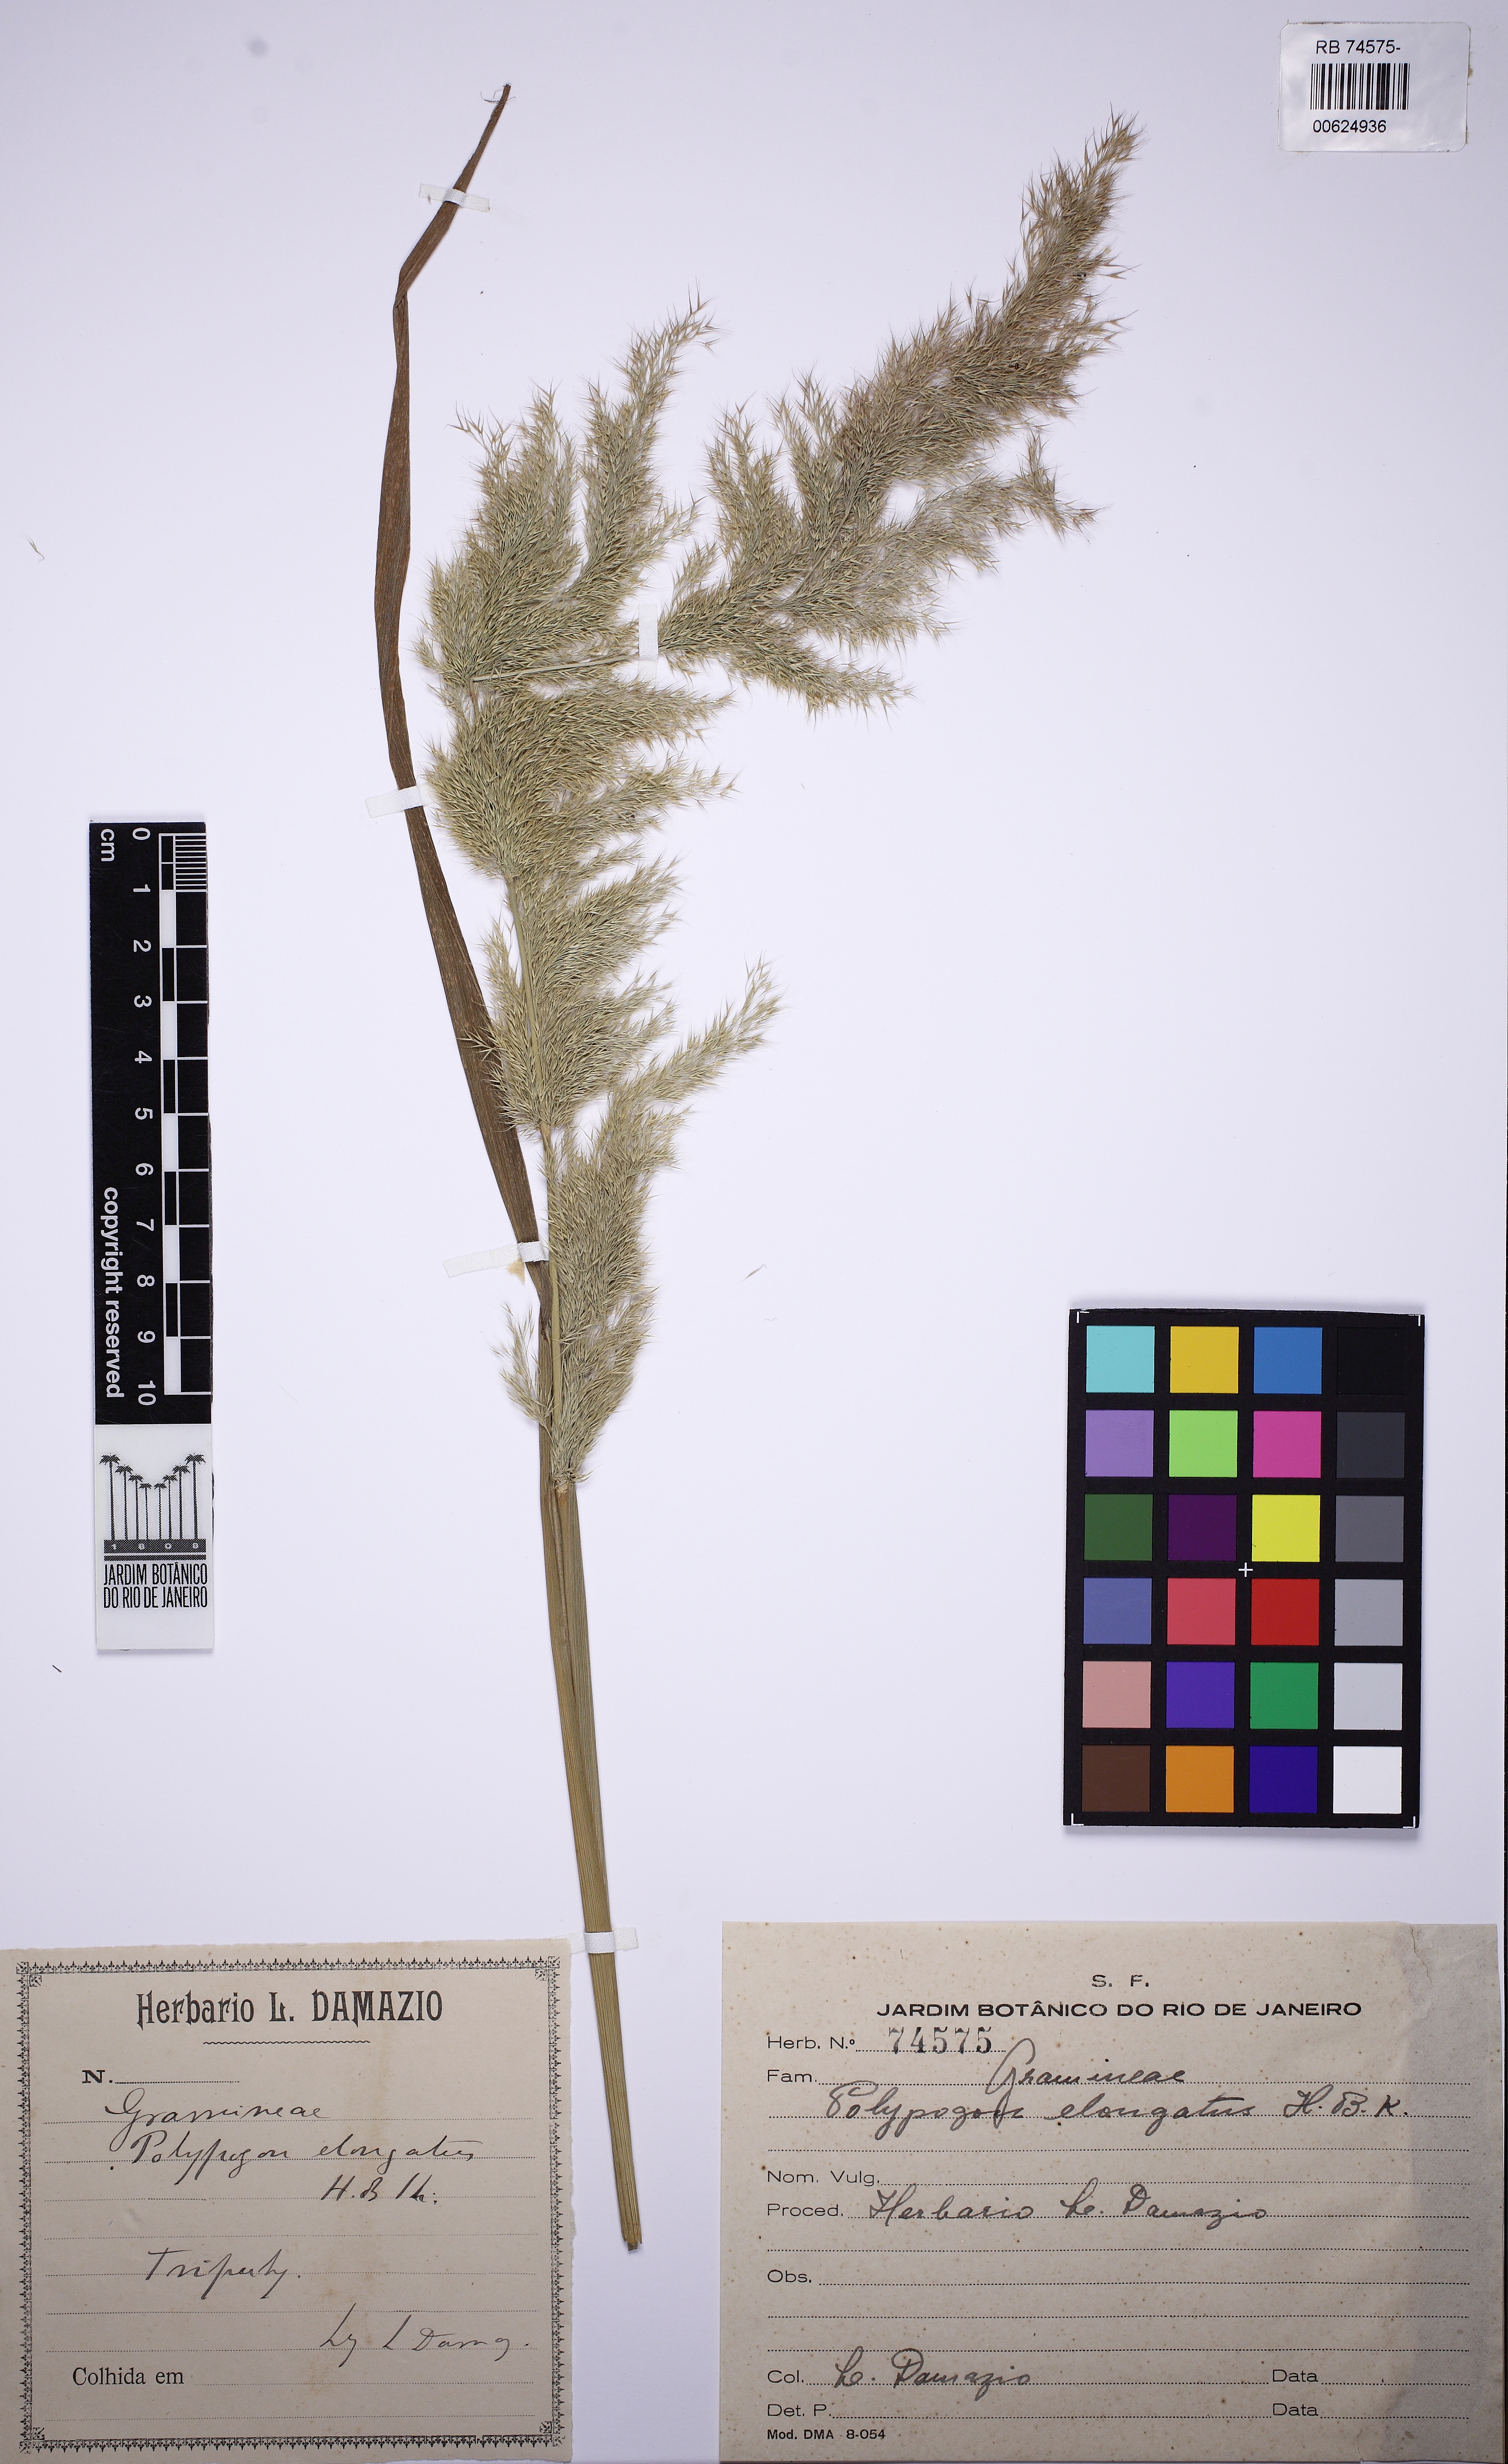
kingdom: Plantae
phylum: Tracheophyta
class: Liliopsida
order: Poales
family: Poaceae
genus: Polypogon
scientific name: Polypogon elongatus
